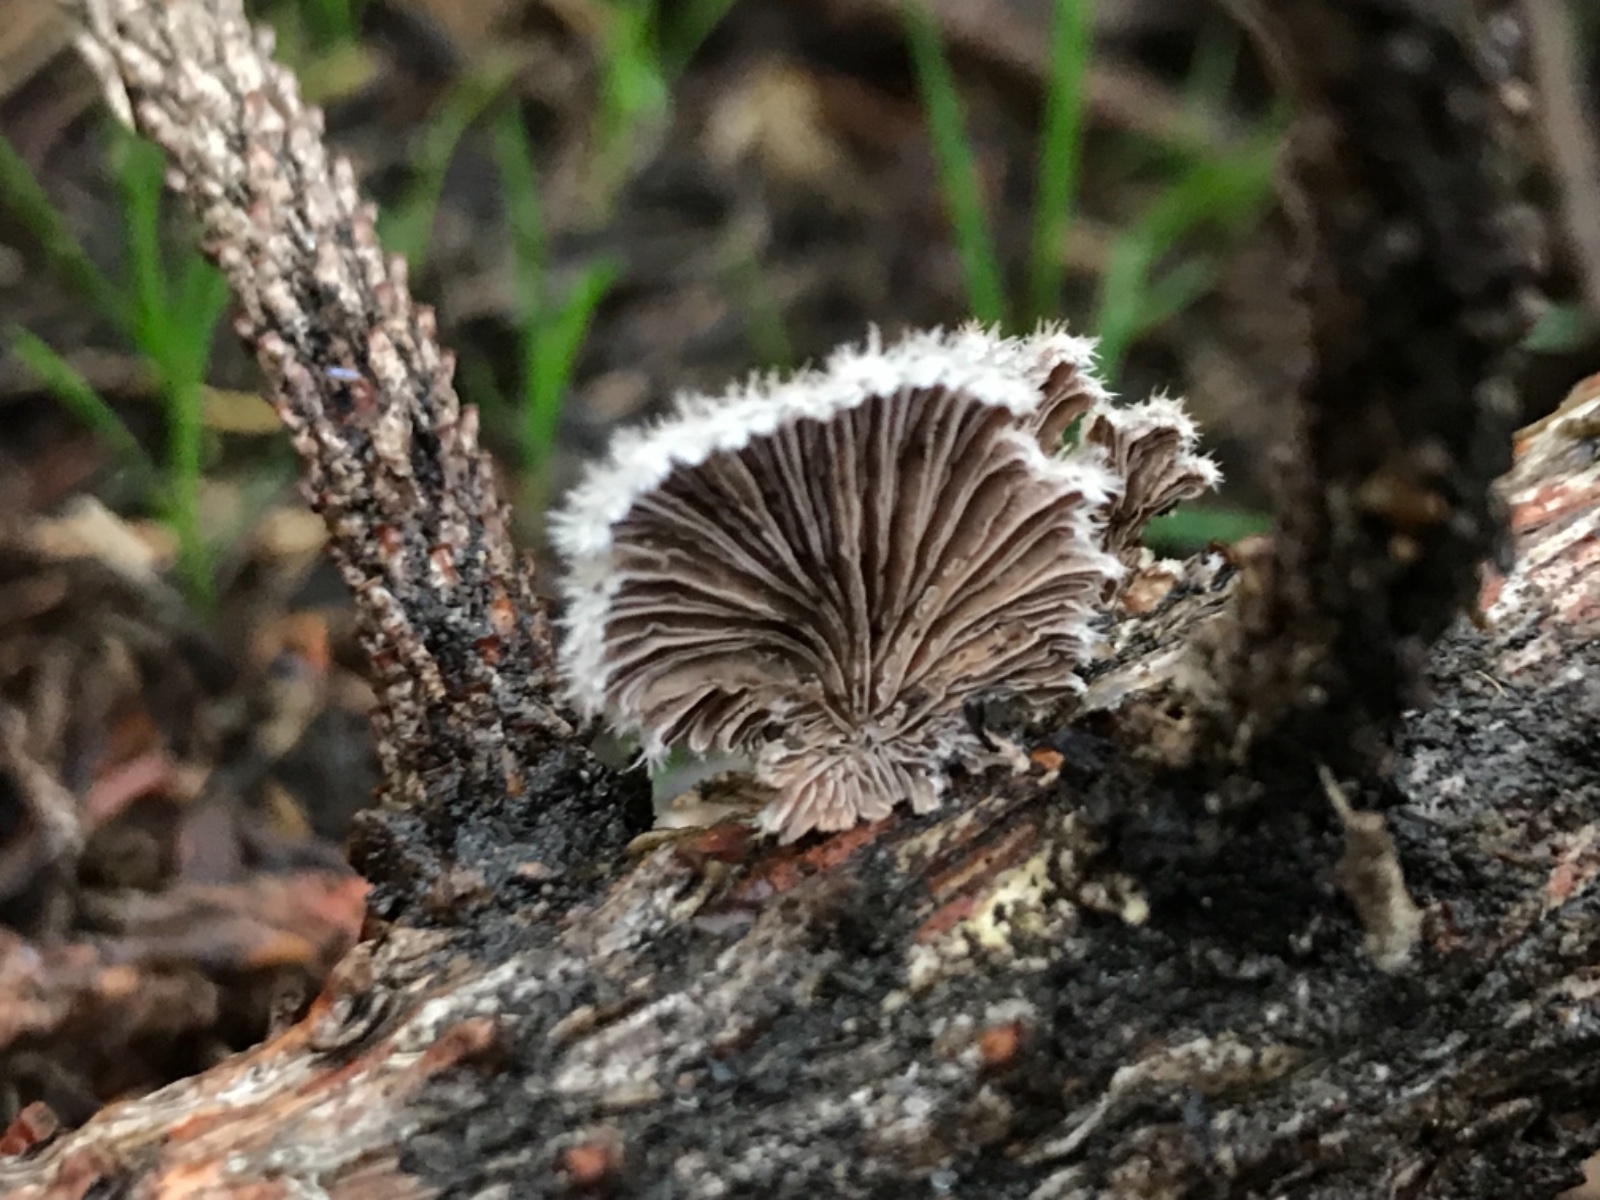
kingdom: Fungi
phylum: Basidiomycota
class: Agaricomycetes
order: Agaricales
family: Schizophyllaceae
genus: Schizophyllum
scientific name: Schizophyllum commune
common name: kløvblad
